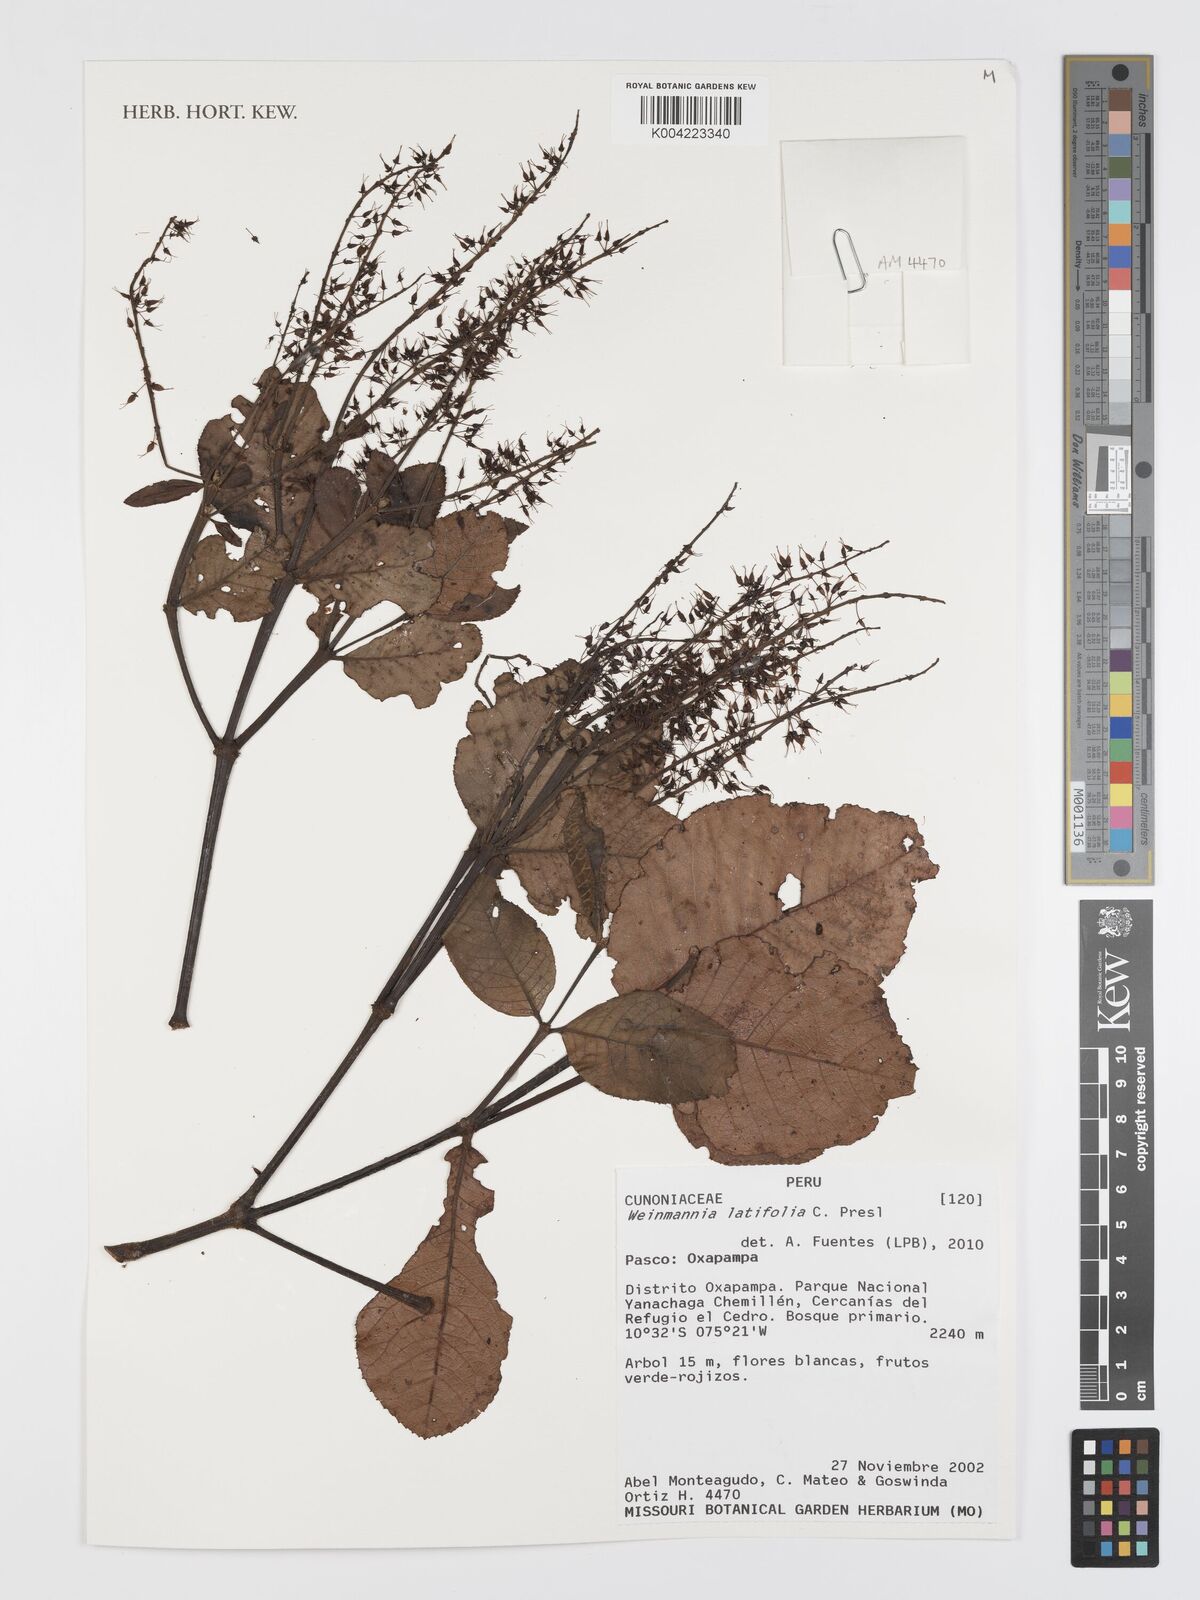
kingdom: Plantae
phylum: Tracheophyta
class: Magnoliopsida
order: Oxalidales
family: Cunoniaceae
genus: Weinmannia
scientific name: Weinmannia latifolia
